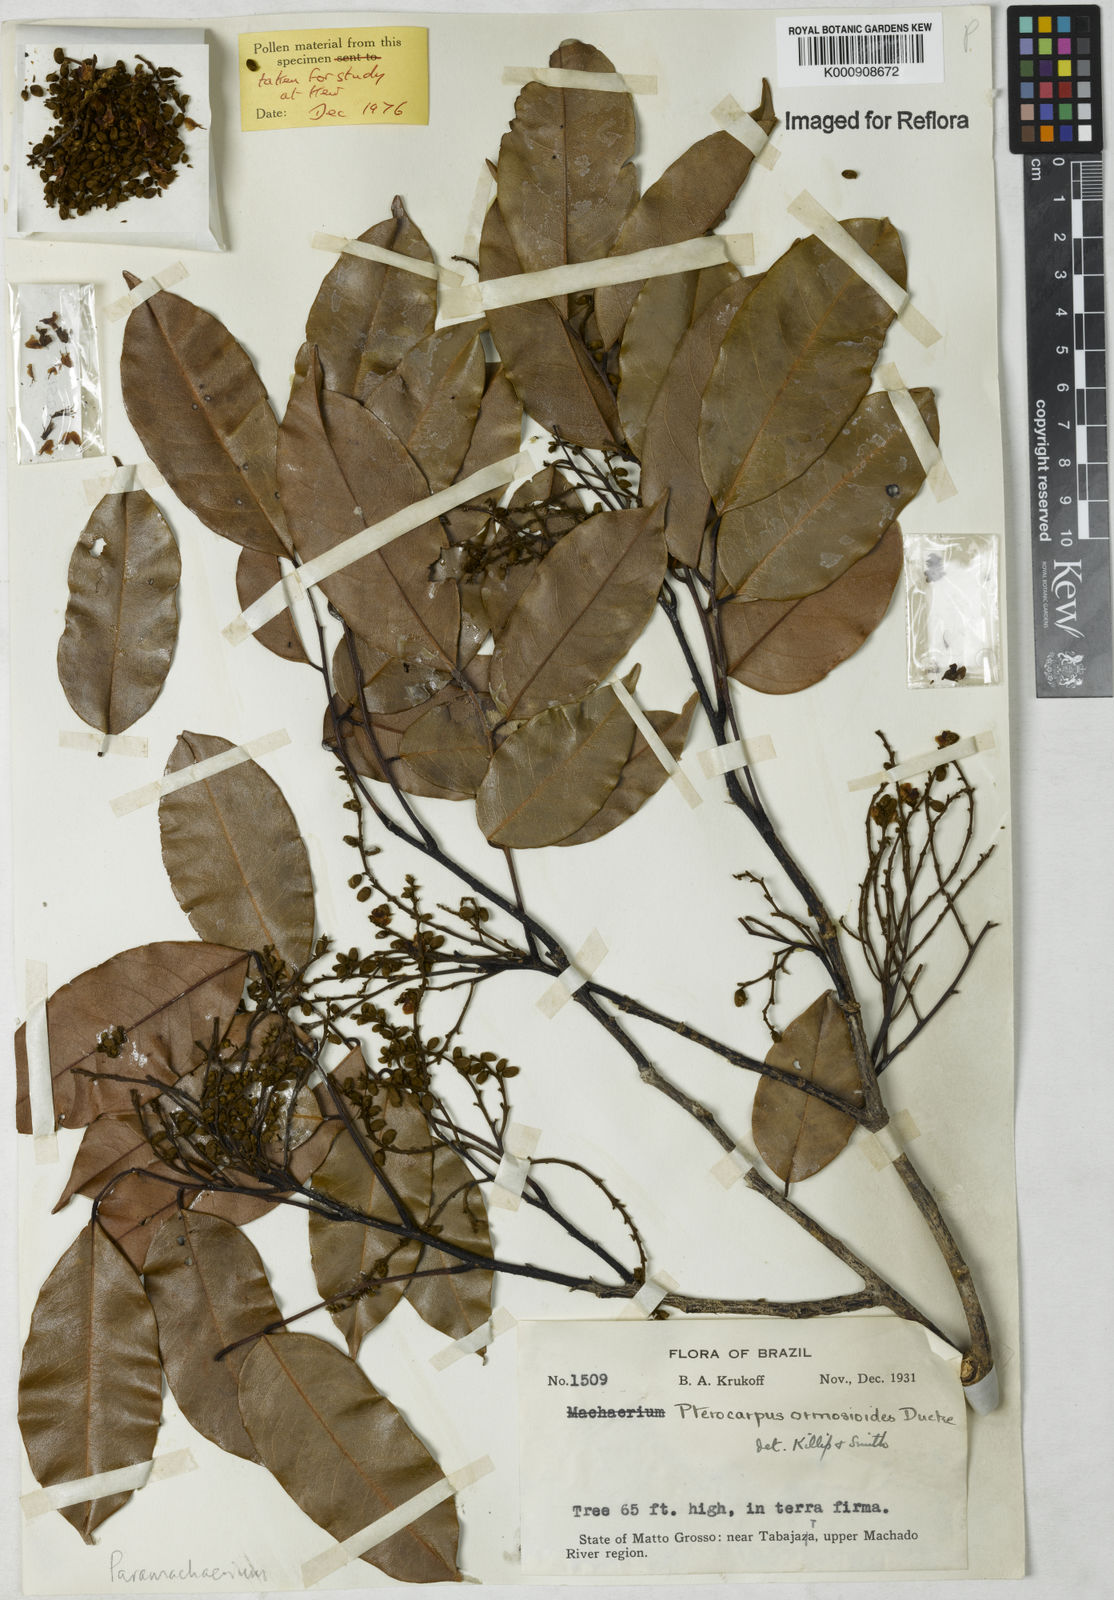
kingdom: Plantae
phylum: Tracheophyta
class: Magnoliopsida
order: Fabales
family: Fabaceae
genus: Paramachaerium
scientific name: Paramachaerium ormosioides
